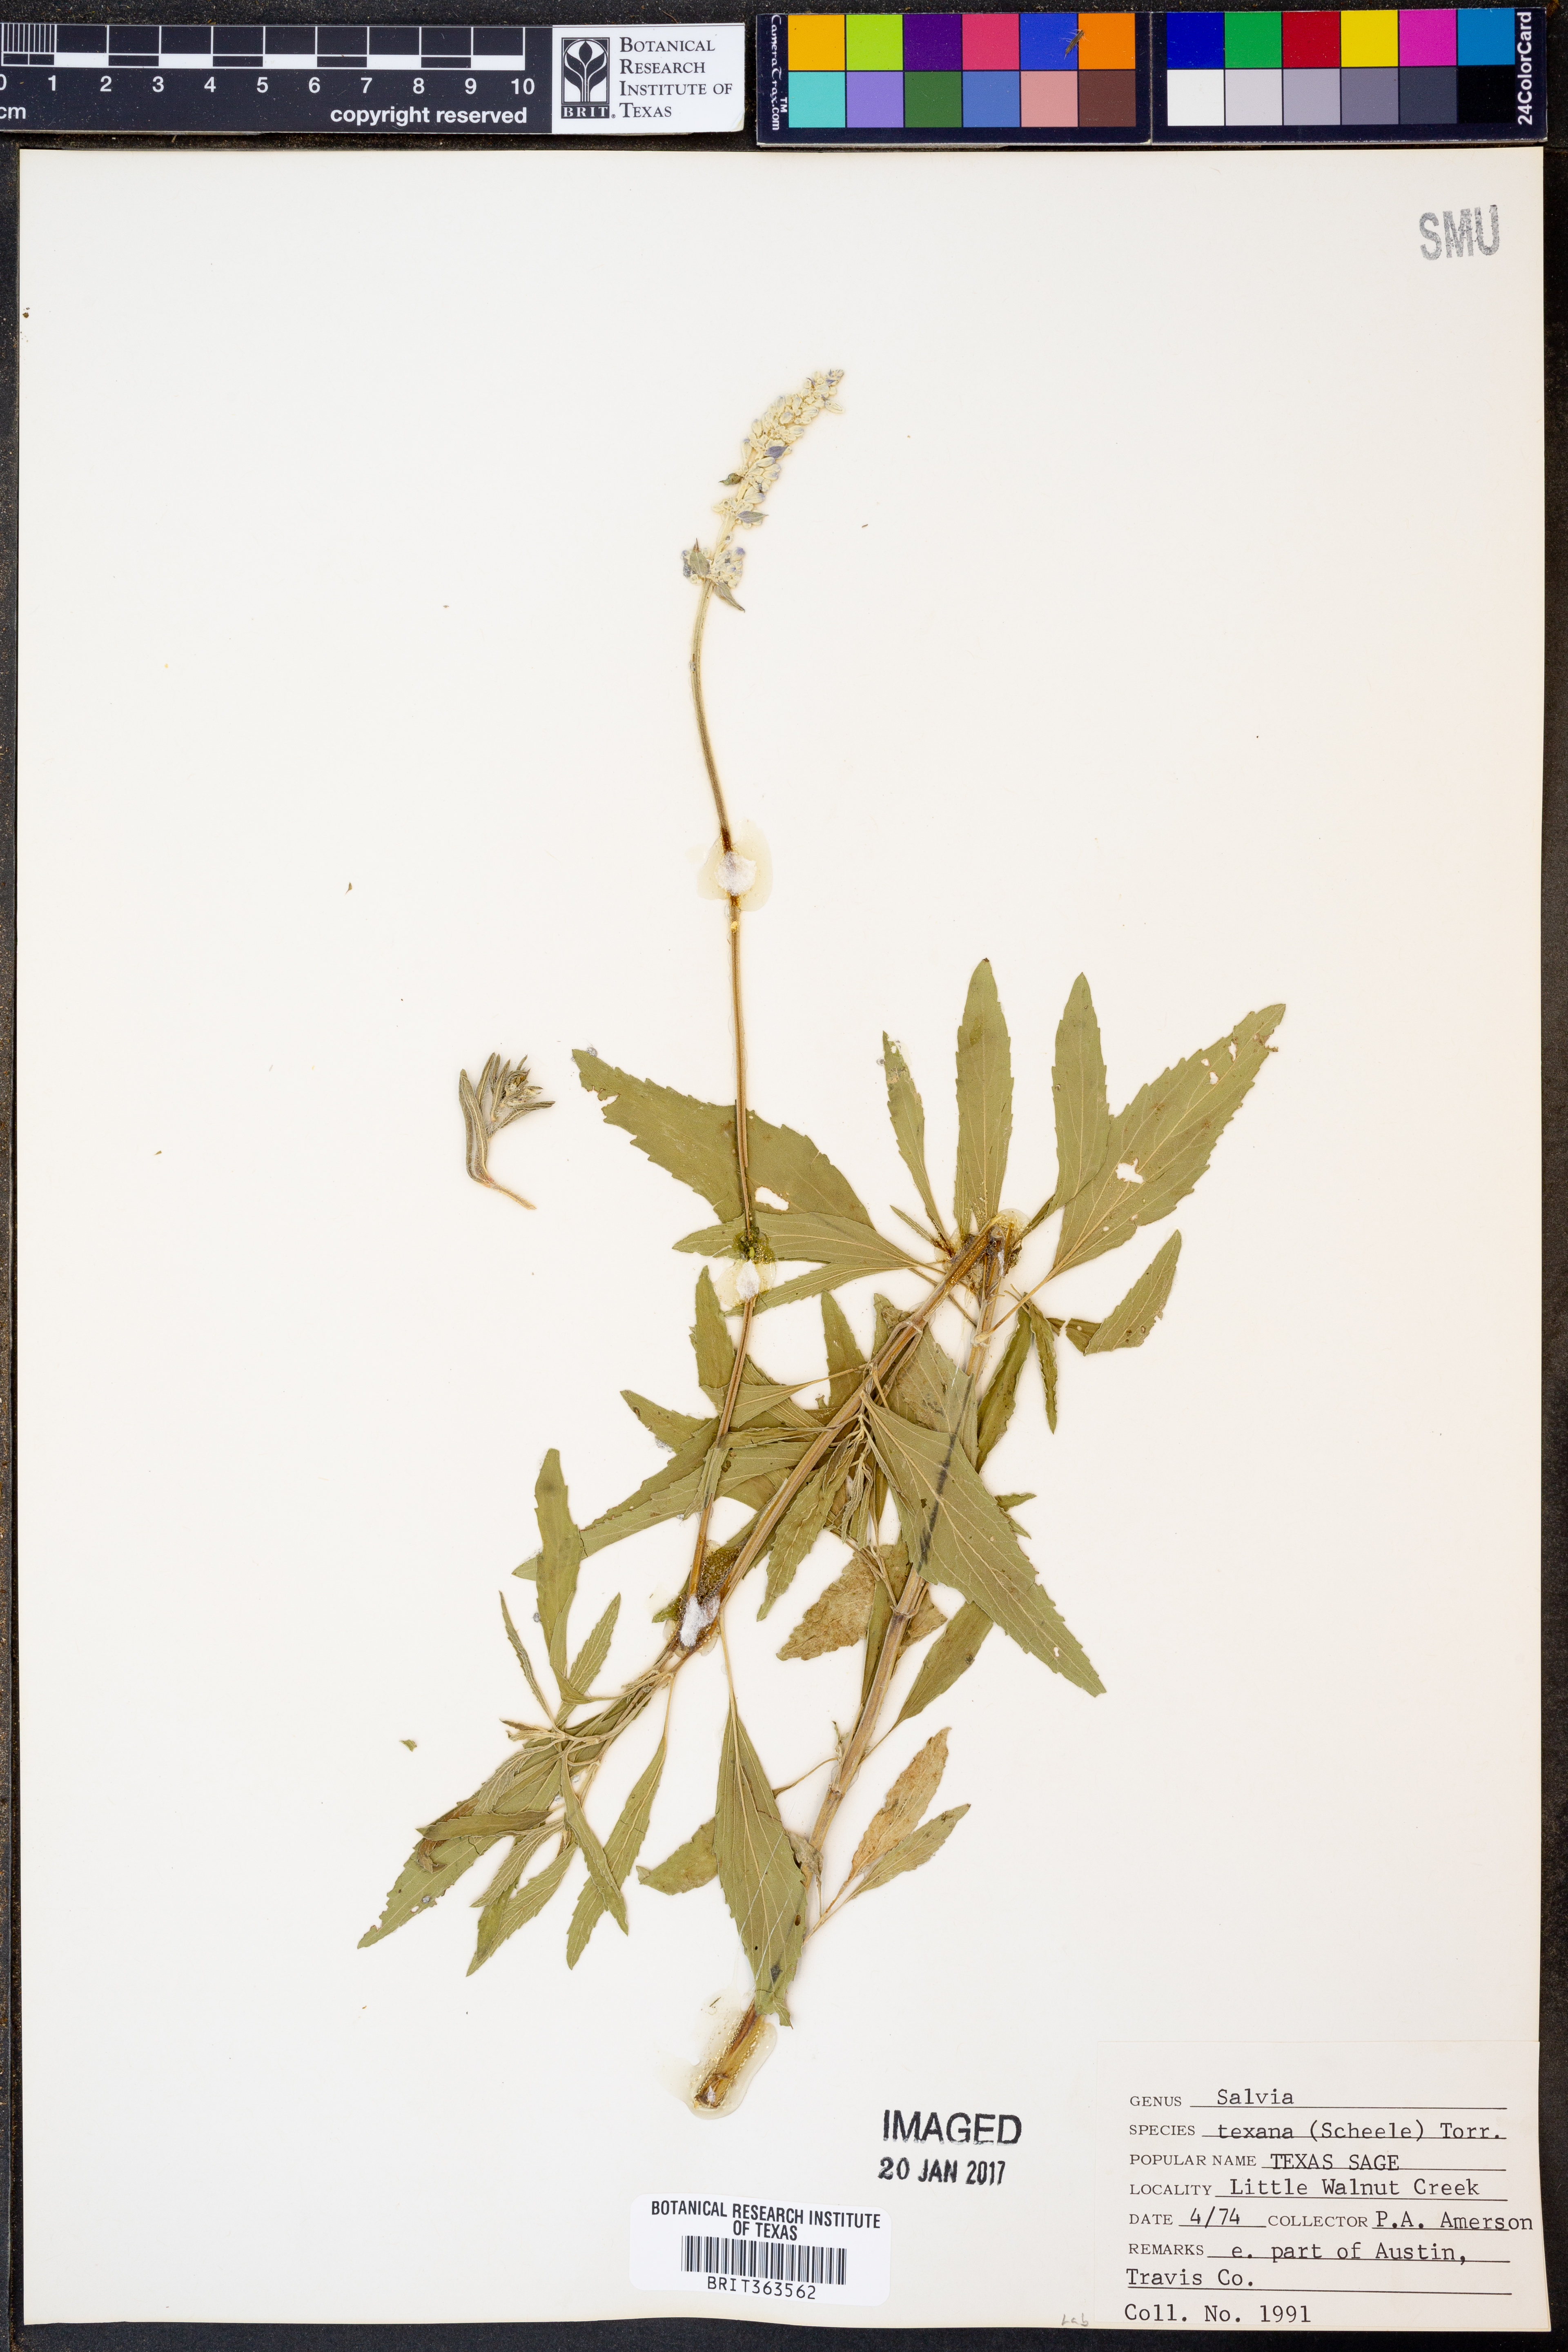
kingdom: Plantae
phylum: Tracheophyta
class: Magnoliopsida
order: Lamiales
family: Lamiaceae
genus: Salvia
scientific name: Salvia texana
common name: Texas sage
